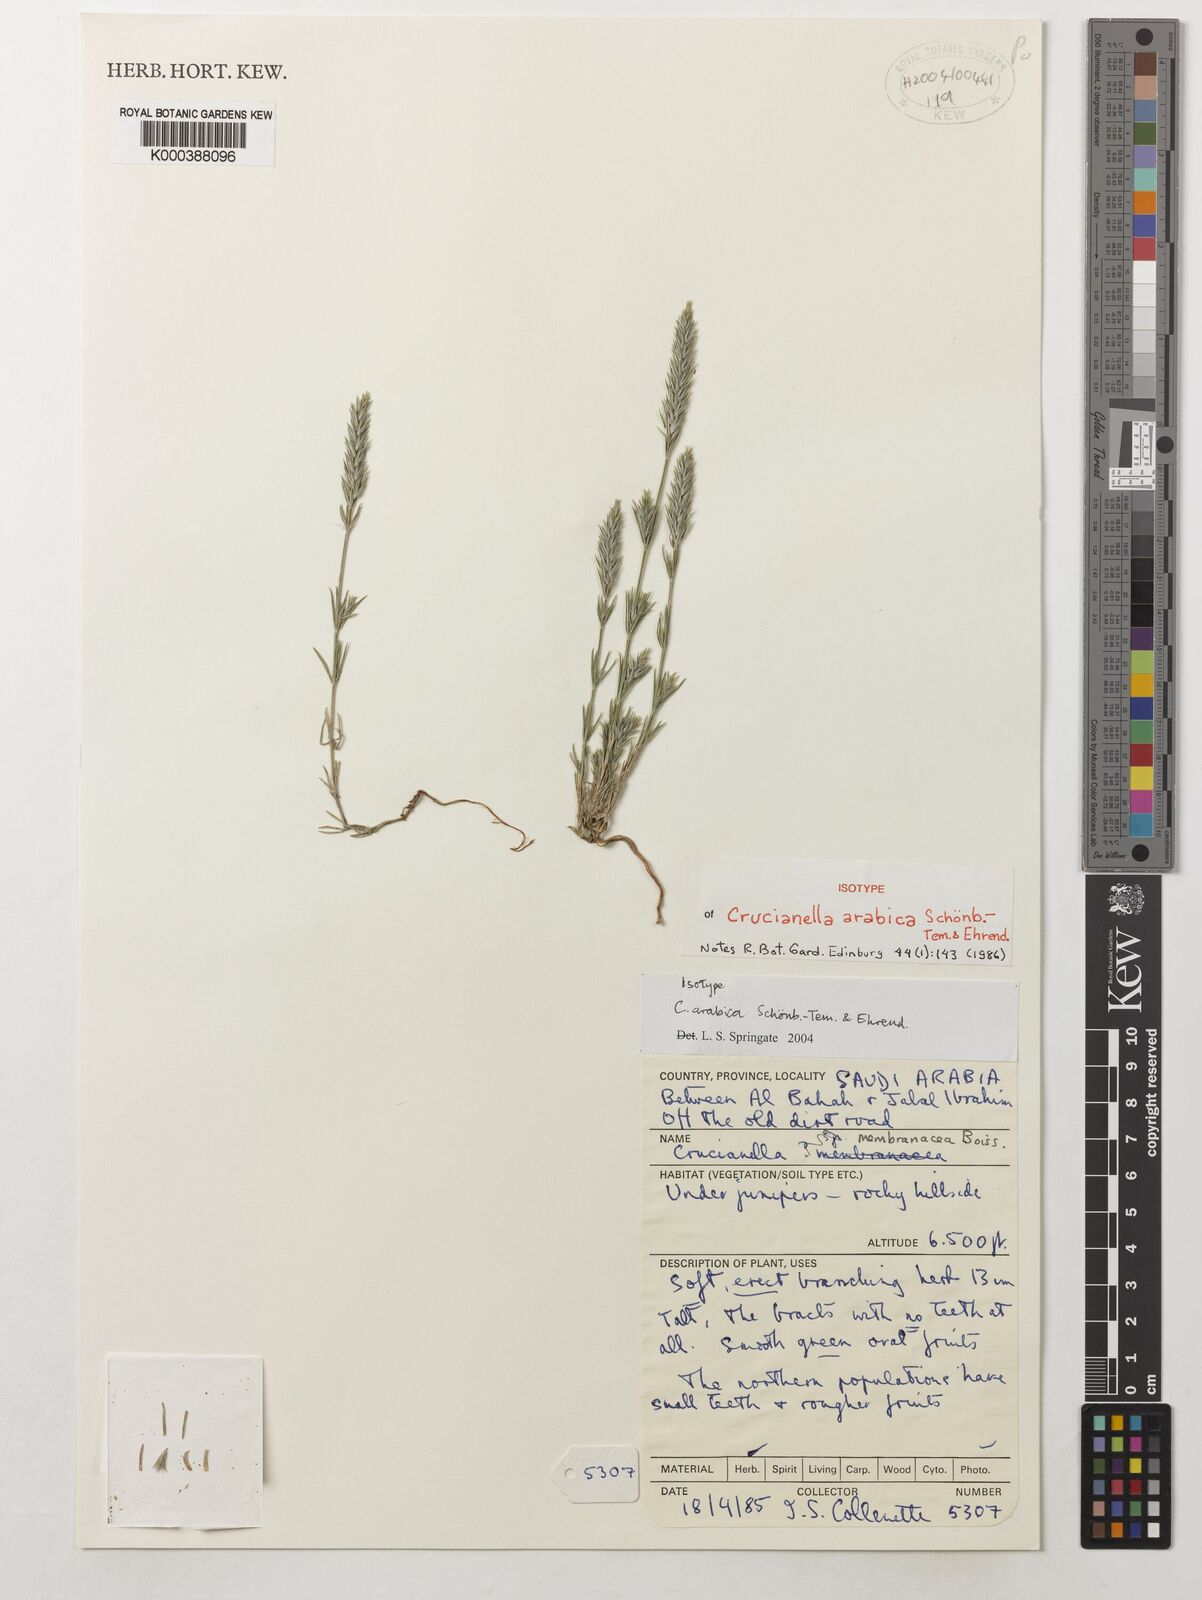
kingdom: Plantae
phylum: Tracheophyta
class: Magnoliopsida
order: Gentianales
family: Rubiaceae
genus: Crucianella
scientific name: Crucianella arabica
